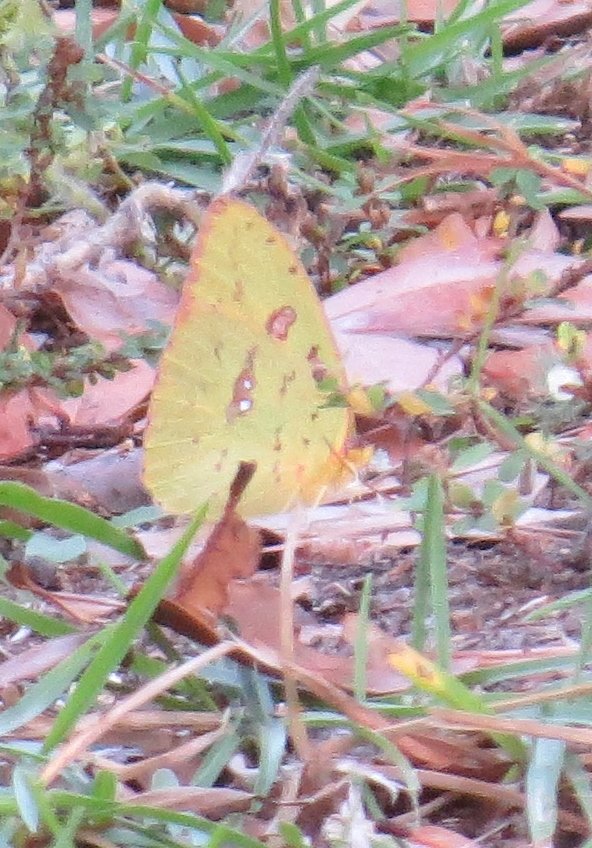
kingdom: Animalia
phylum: Arthropoda
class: Insecta
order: Lepidoptera
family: Pieridae
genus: Phoebis
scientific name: Phoebis sennae
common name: Cloudless Sulphur
